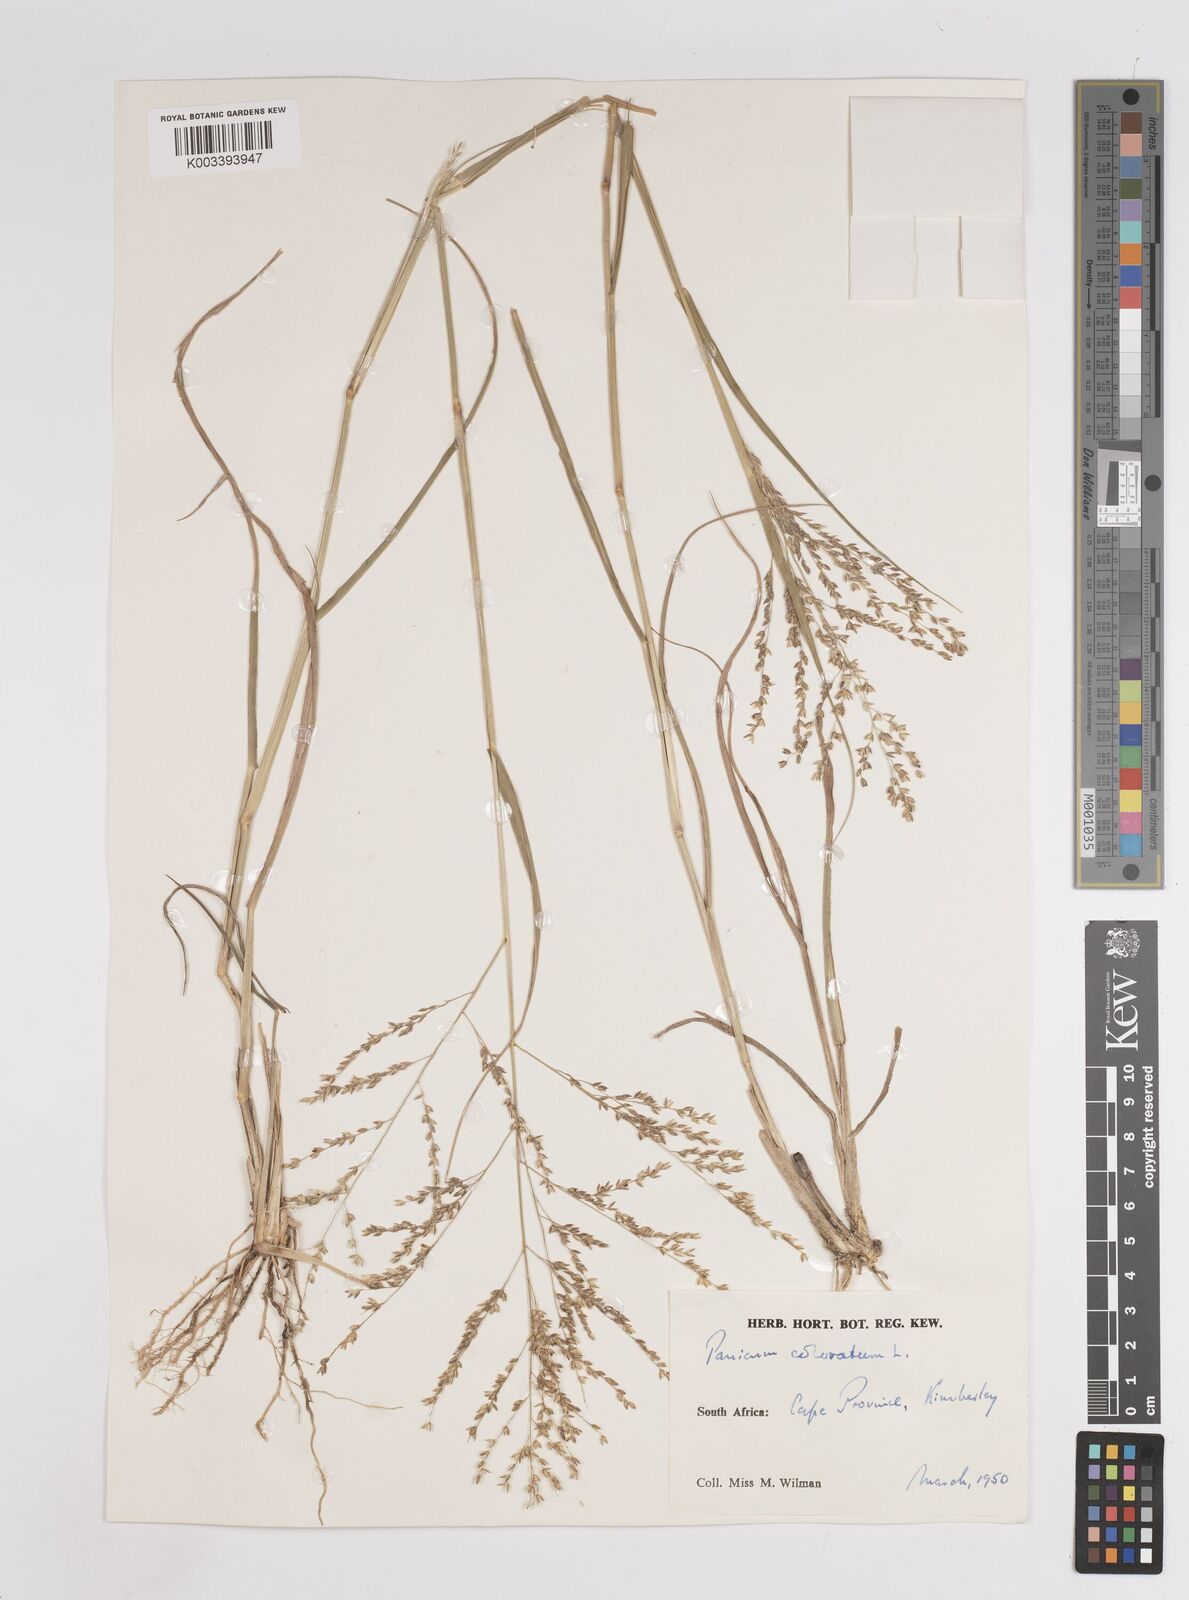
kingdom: Plantae
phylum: Tracheophyta
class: Liliopsida
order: Poales
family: Poaceae
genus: Panicum
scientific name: Panicum coloratum
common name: Kleingrass
